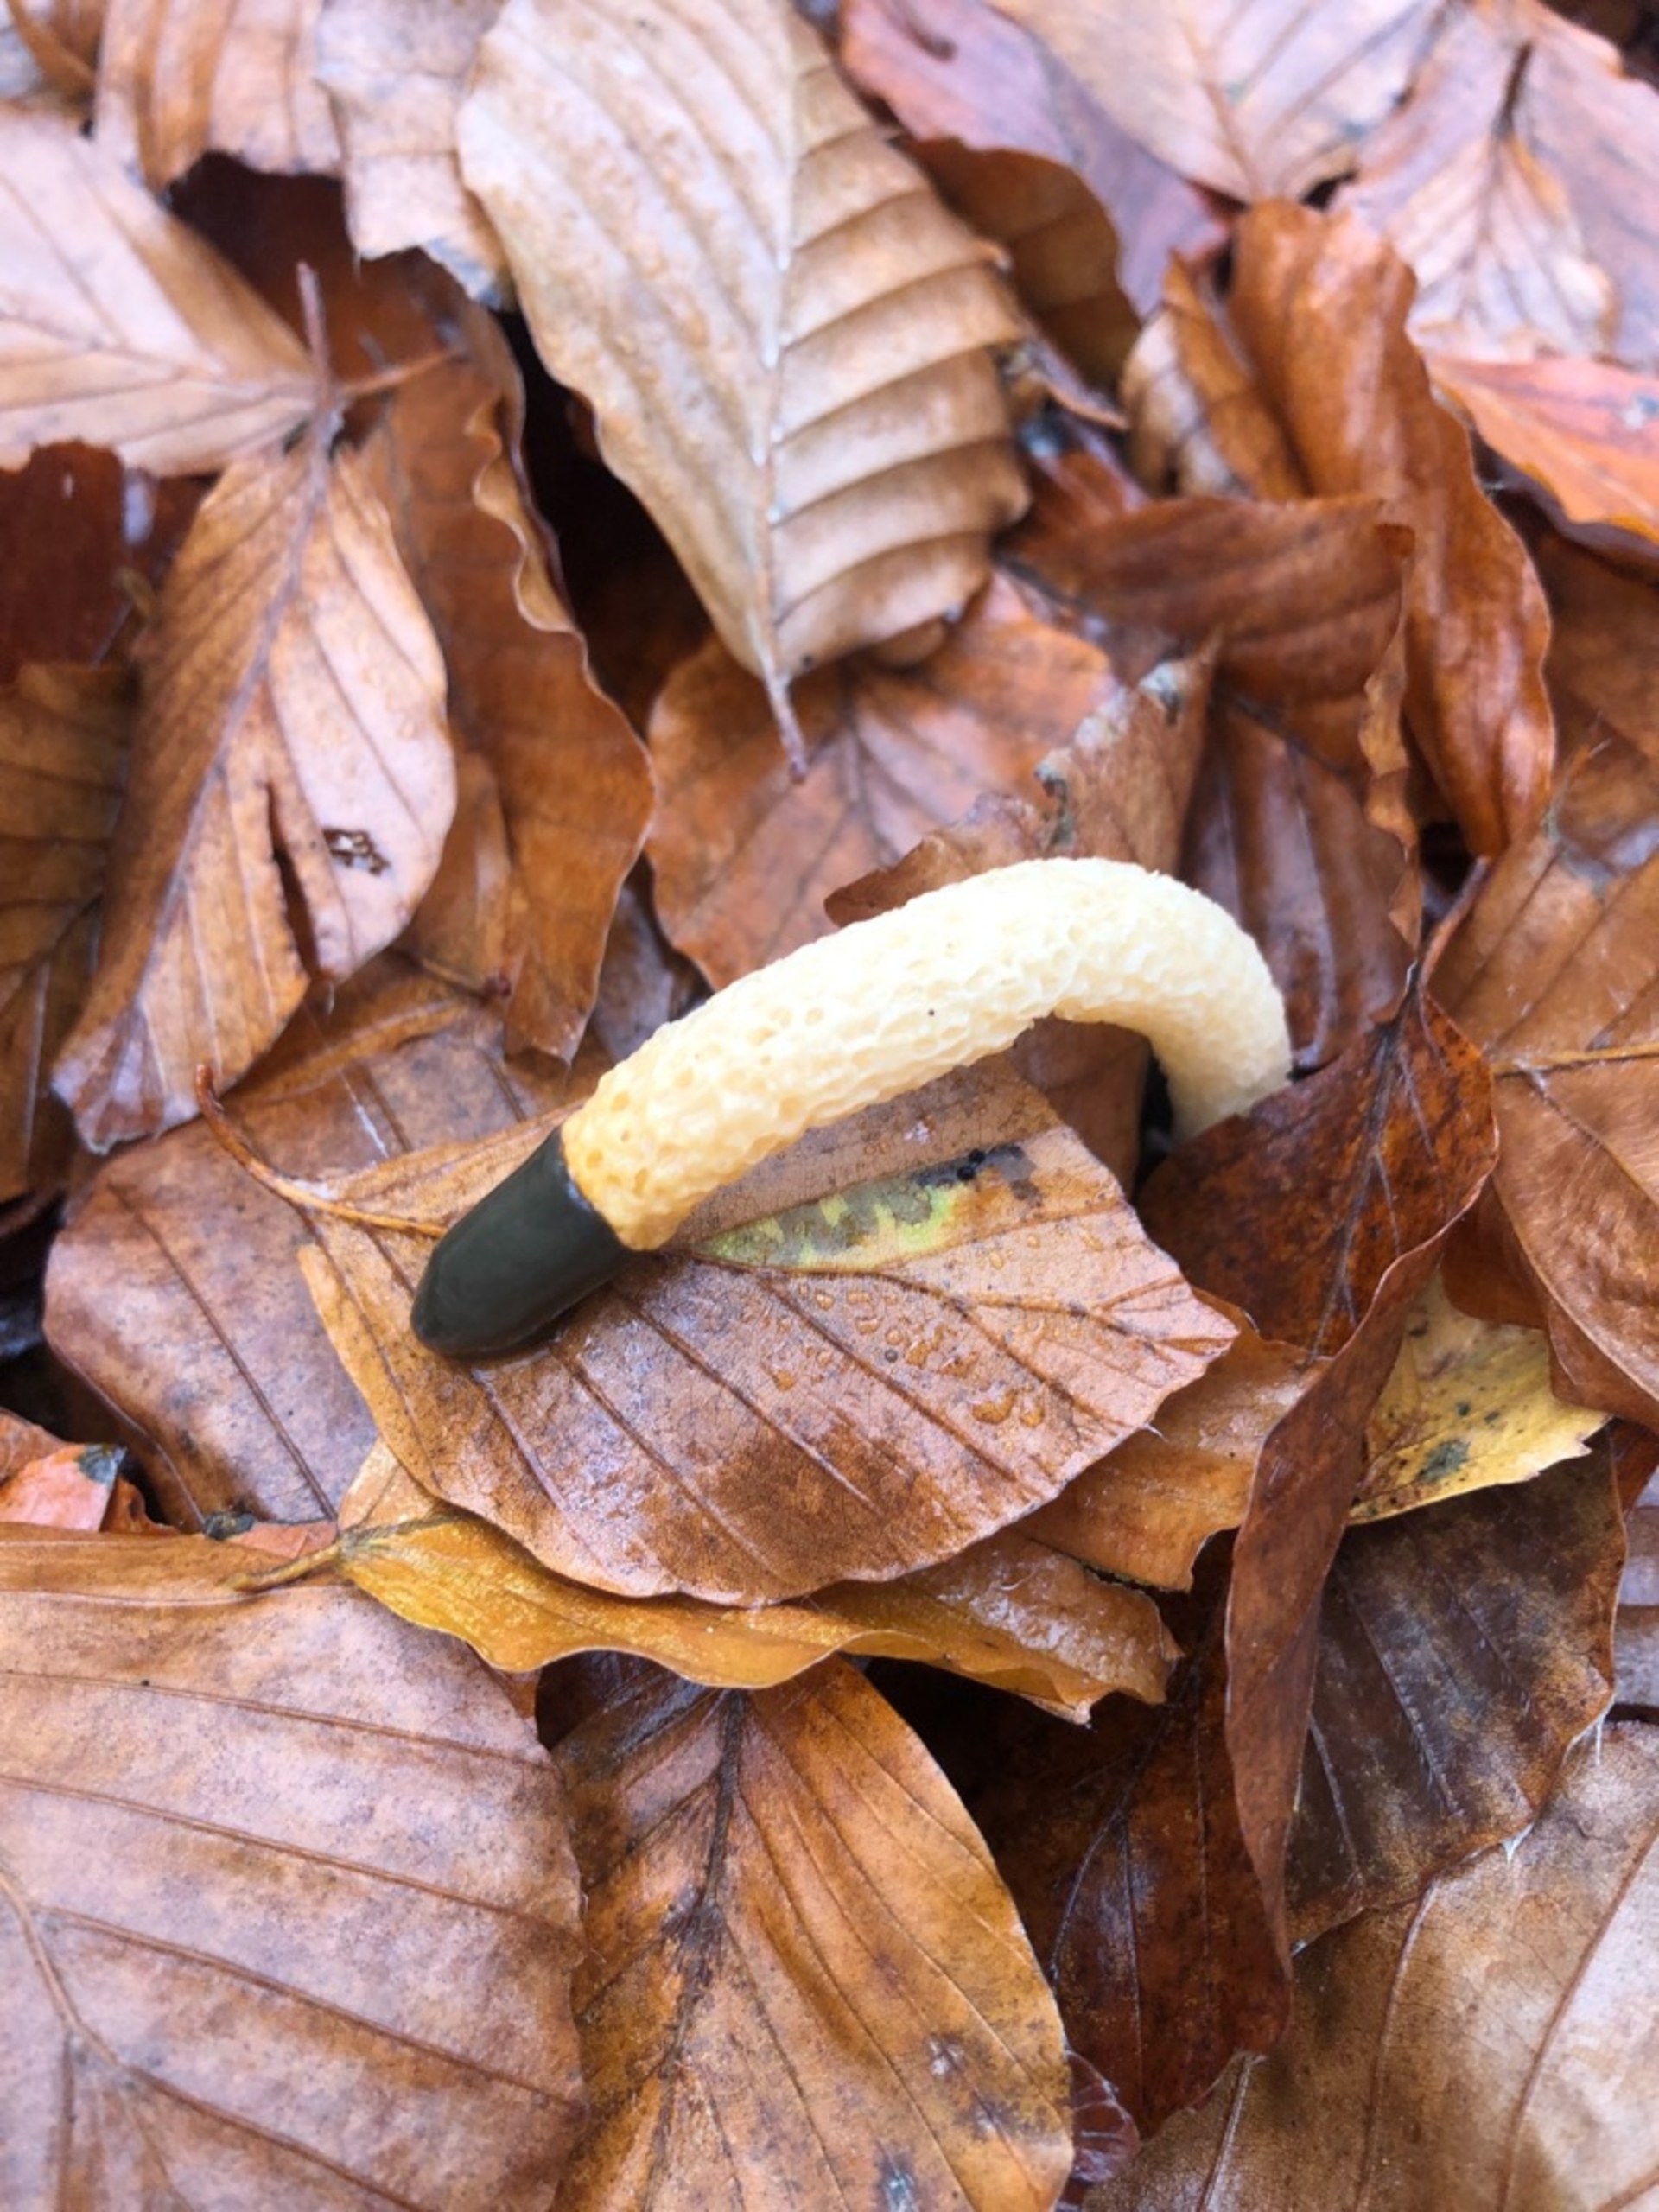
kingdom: Fungi
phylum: Basidiomycota
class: Agaricomycetes
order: Phallales
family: Phallaceae
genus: Mutinus
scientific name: Mutinus caninus
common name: Hunde-stinksvamp
